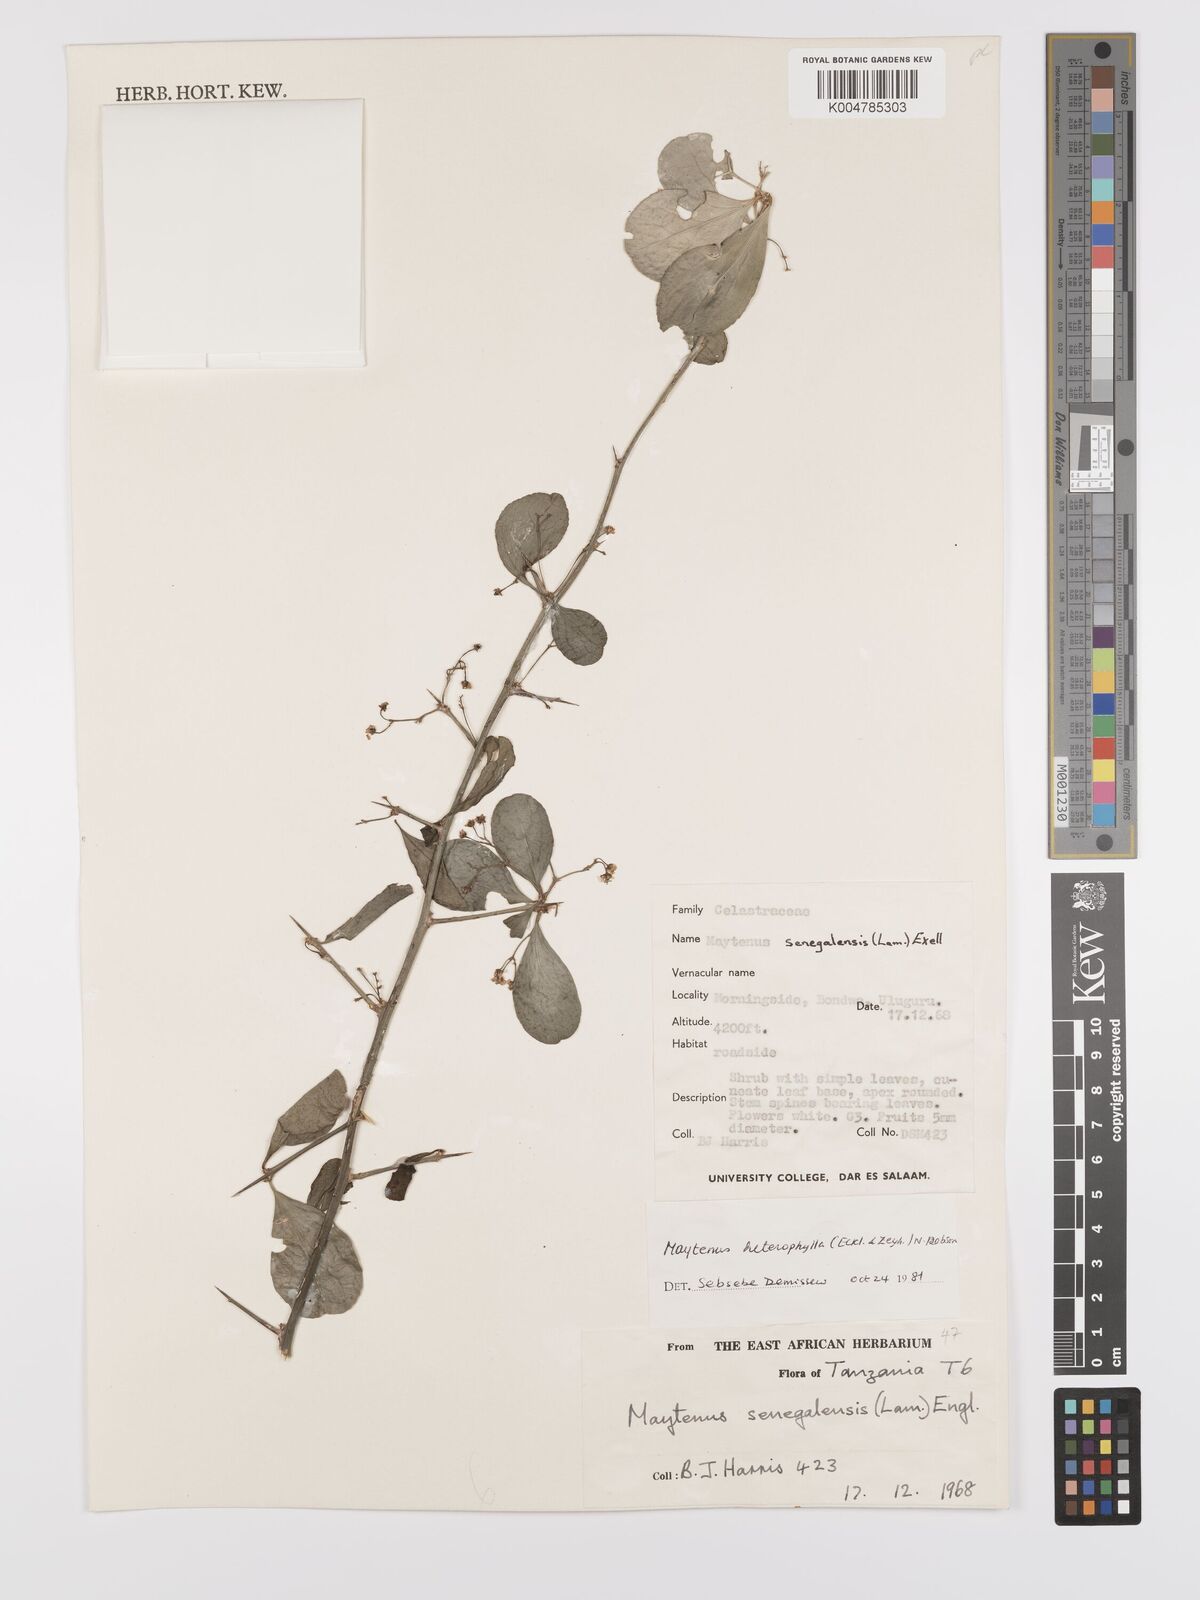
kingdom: Plantae
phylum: Tracheophyta
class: Magnoliopsida
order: Celastrales
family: Celastraceae
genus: Gymnosporia
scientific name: Gymnosporia nguruensis
